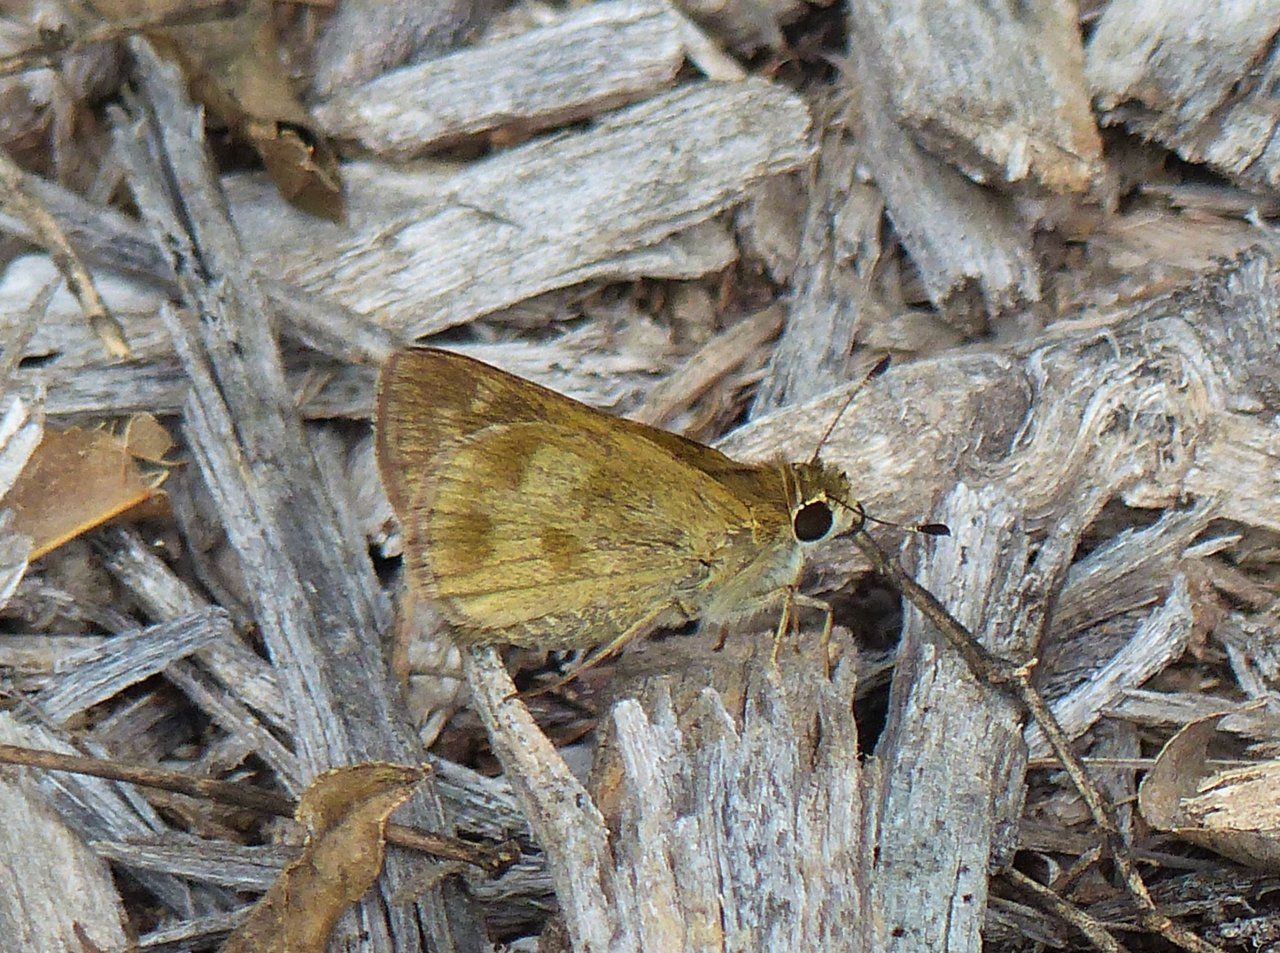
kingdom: Animalia
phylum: Arthropoda
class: Insecta
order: Lepidoptera
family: Hesperiidae
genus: Polites
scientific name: Polites vibex
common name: Whirlabout
